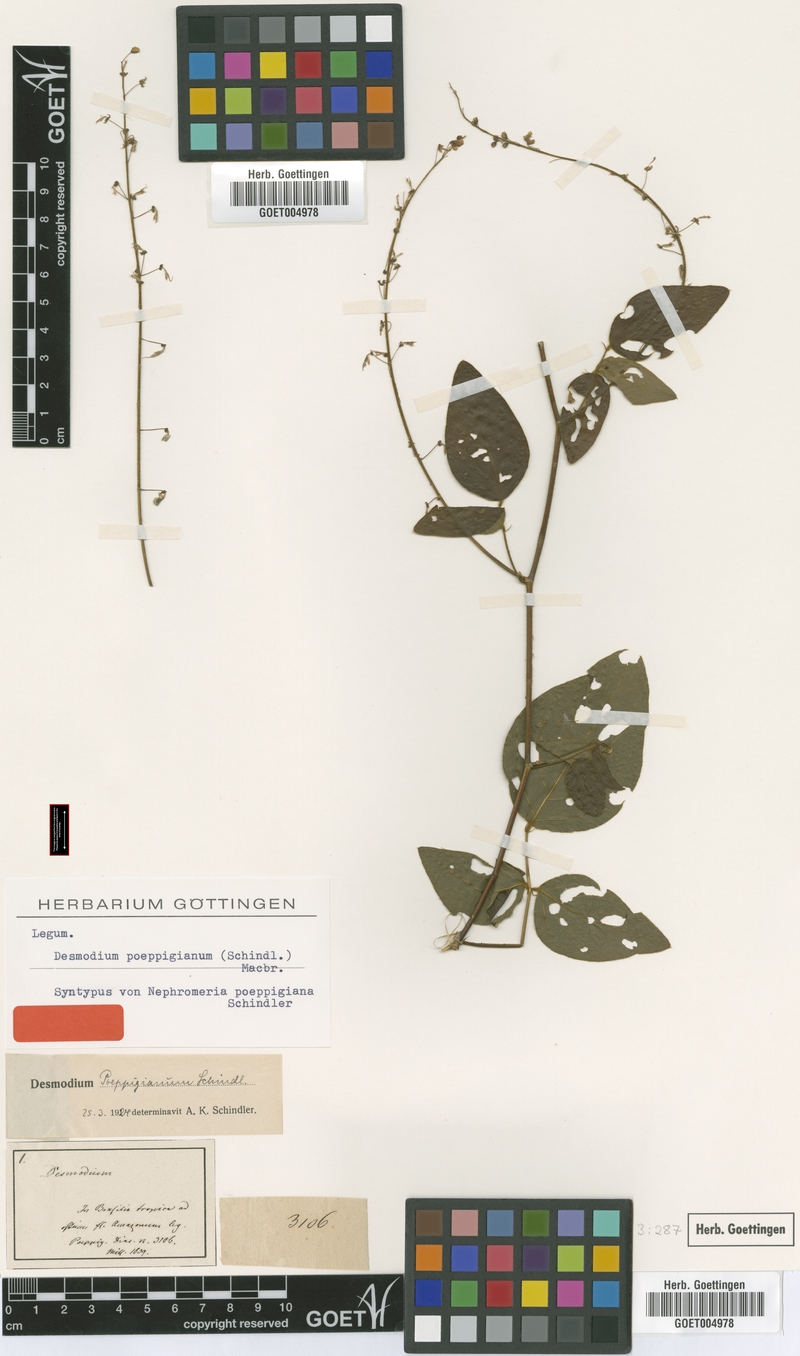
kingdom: Plantae
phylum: Tracheophyta
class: Magnoliopsida
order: Fabales
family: Fabaceae
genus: Desmodium
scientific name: Desmodium purpusii
